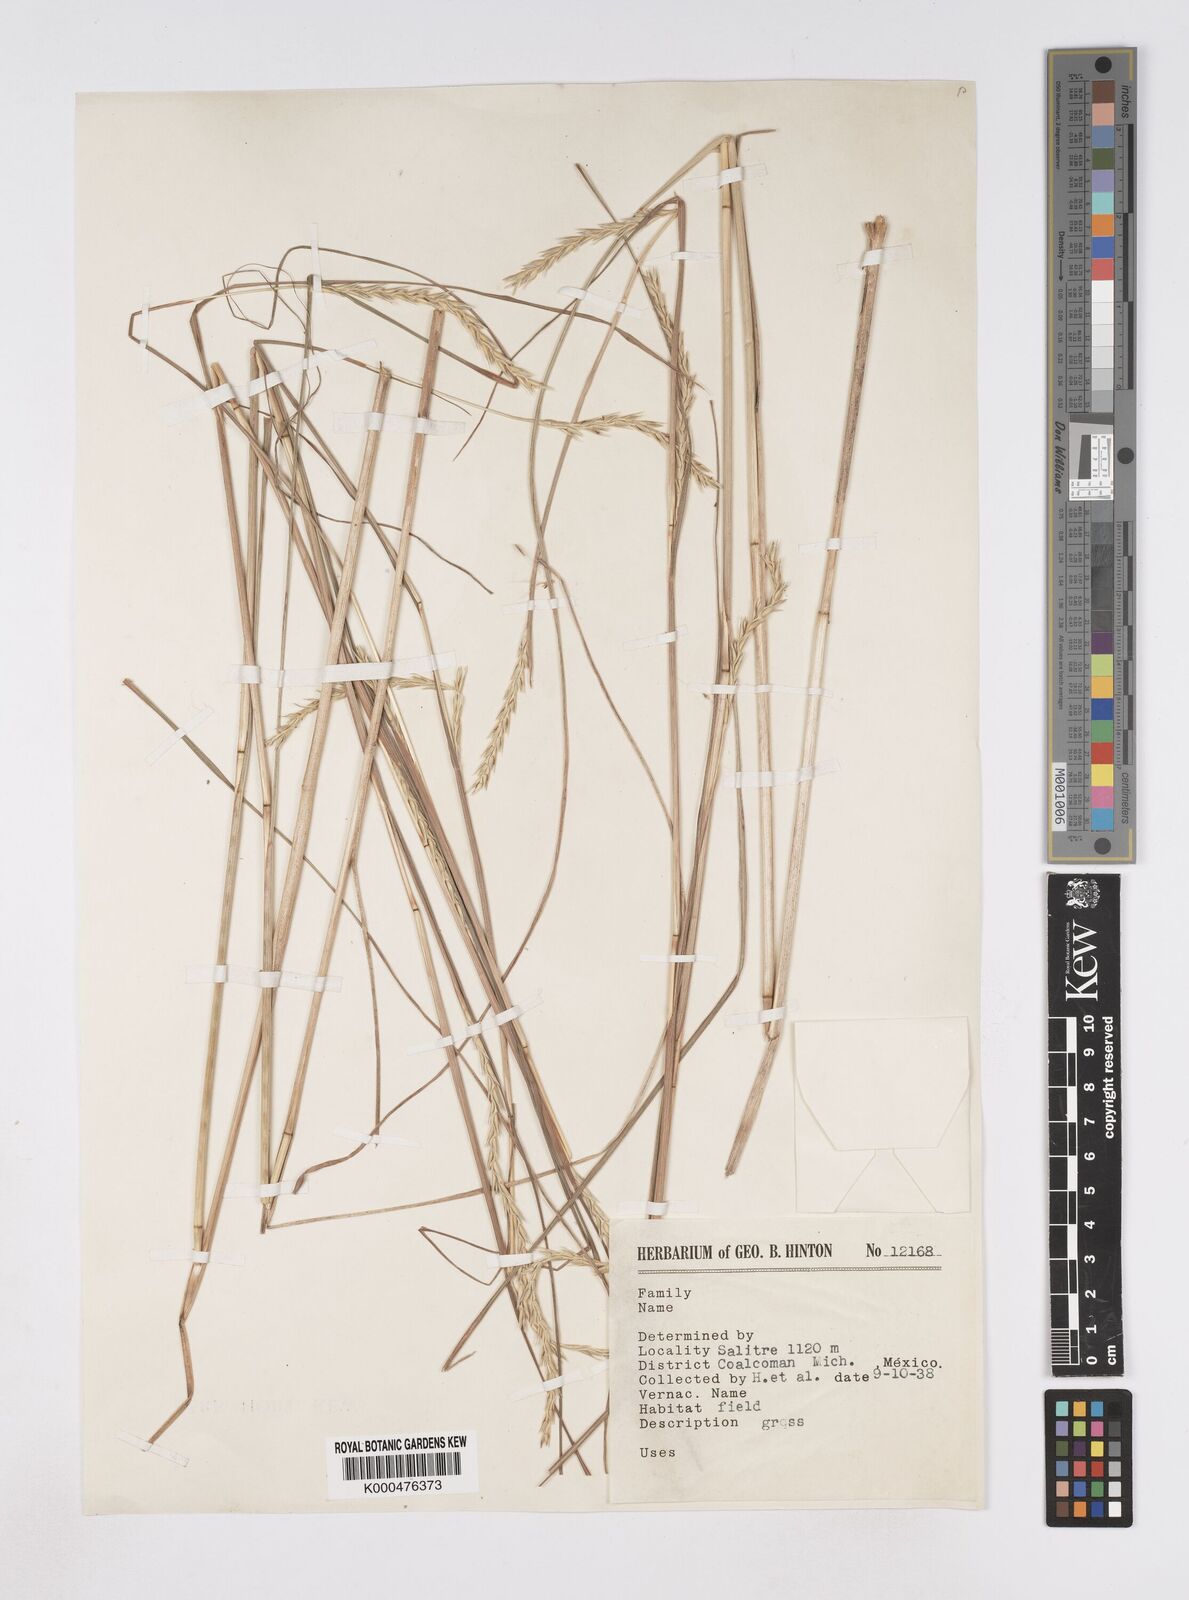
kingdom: Plantae
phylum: Tracheophyta
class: Liliopsida
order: Poales
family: Poaceae
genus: Elionurus
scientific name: Elionurus tripsacoides
